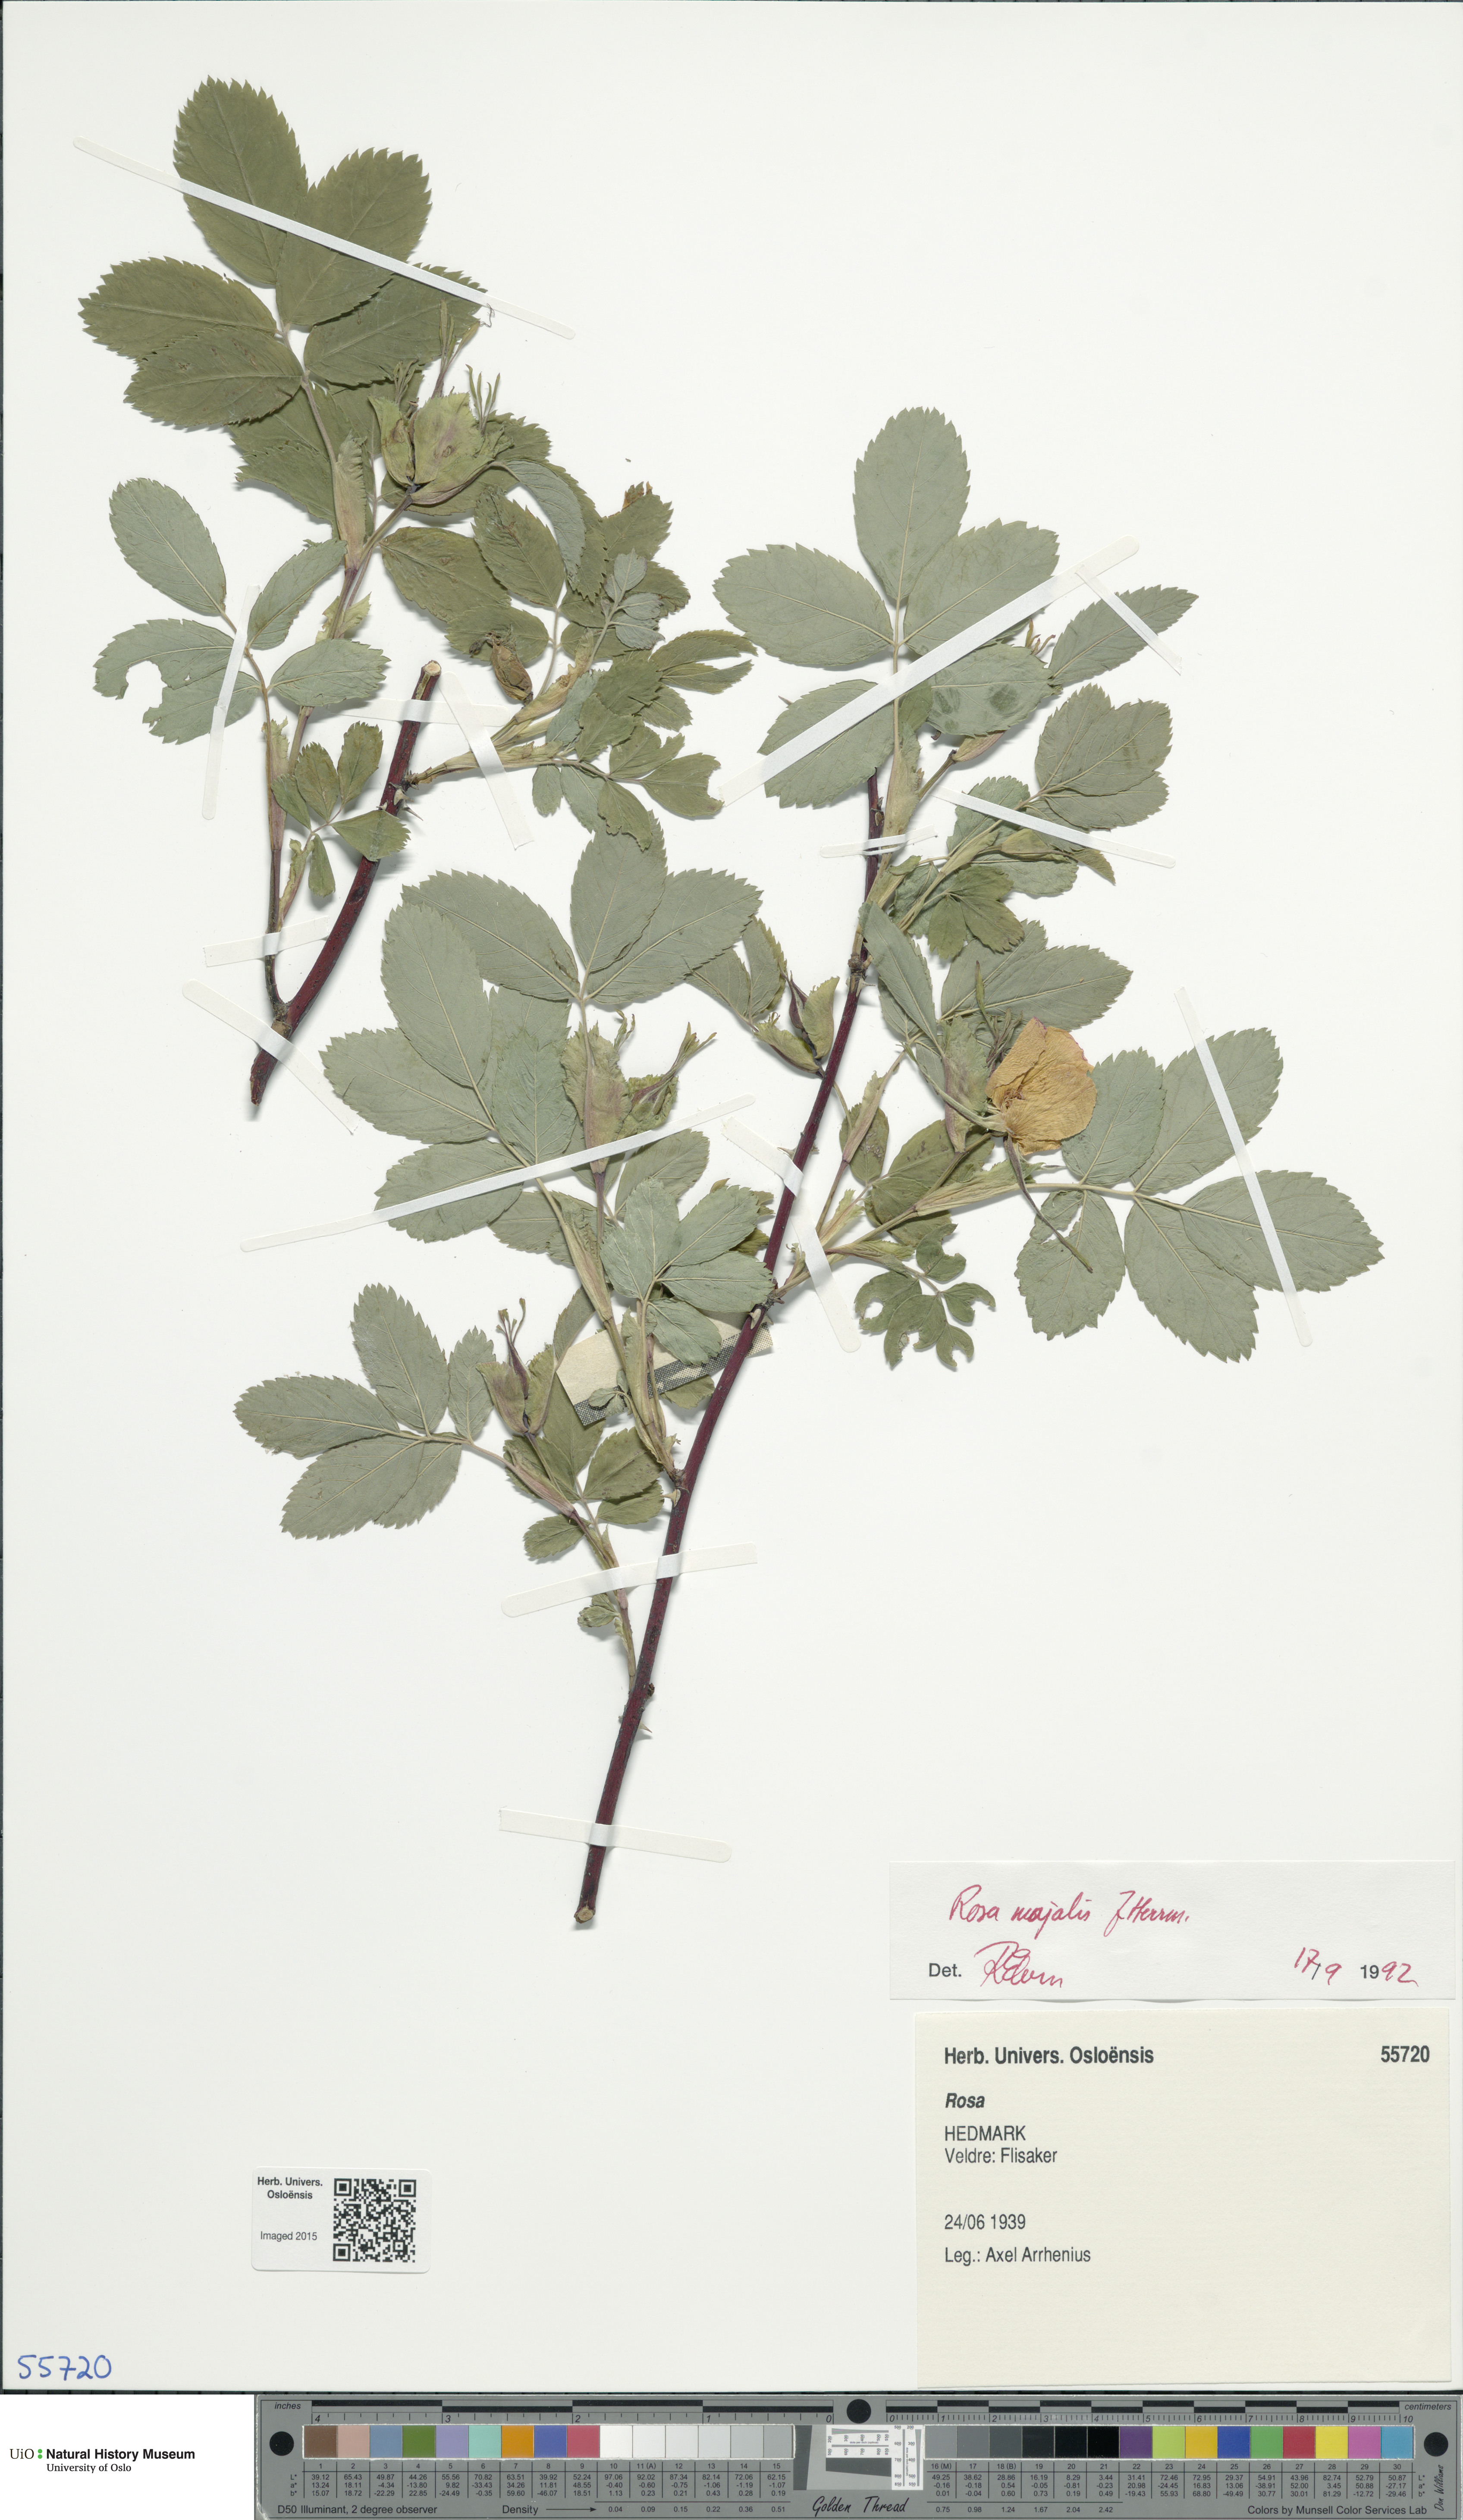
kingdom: Plantae
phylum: Tracheophyta
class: Magnoliopsida
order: Rosales
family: Rosaceae
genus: Rosa
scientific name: Rosa majalis
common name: Cinnamon rose
